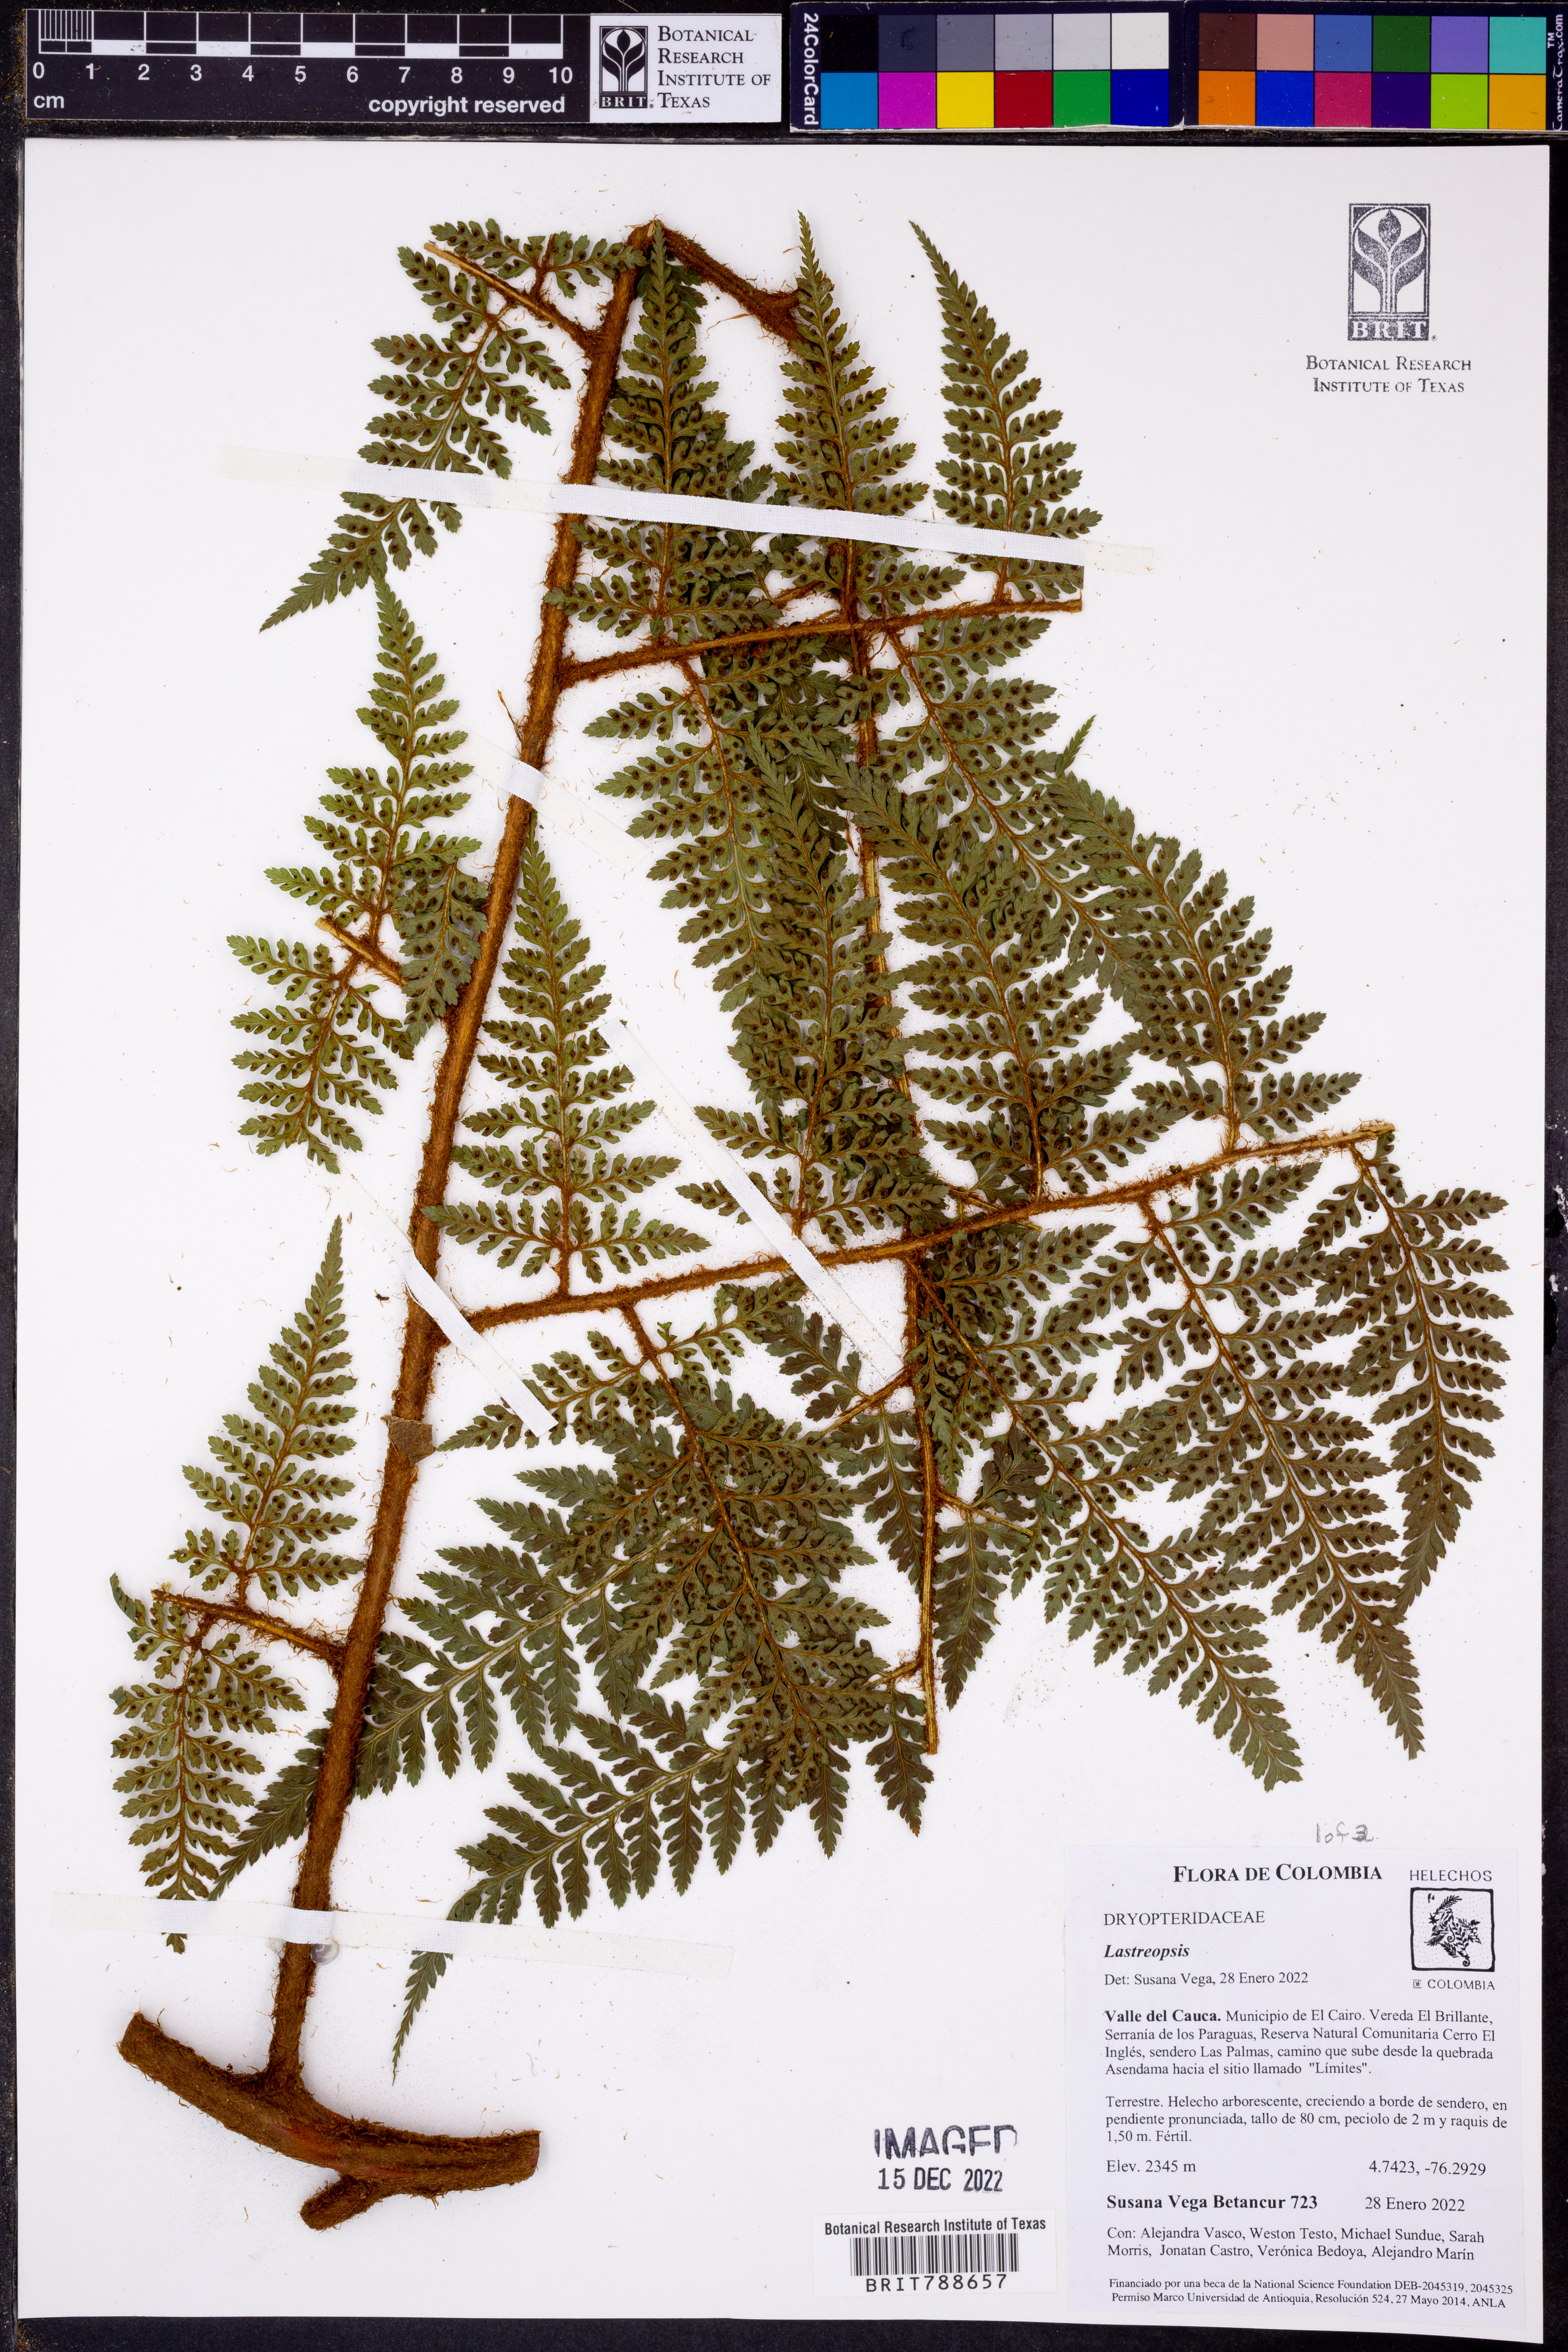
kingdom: Plantae
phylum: Tracheophyta
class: Polypodiopsida
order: Polypodiales
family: Dryopteridaceae
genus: Lastreopsis
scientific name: Lastreopsis killipii
